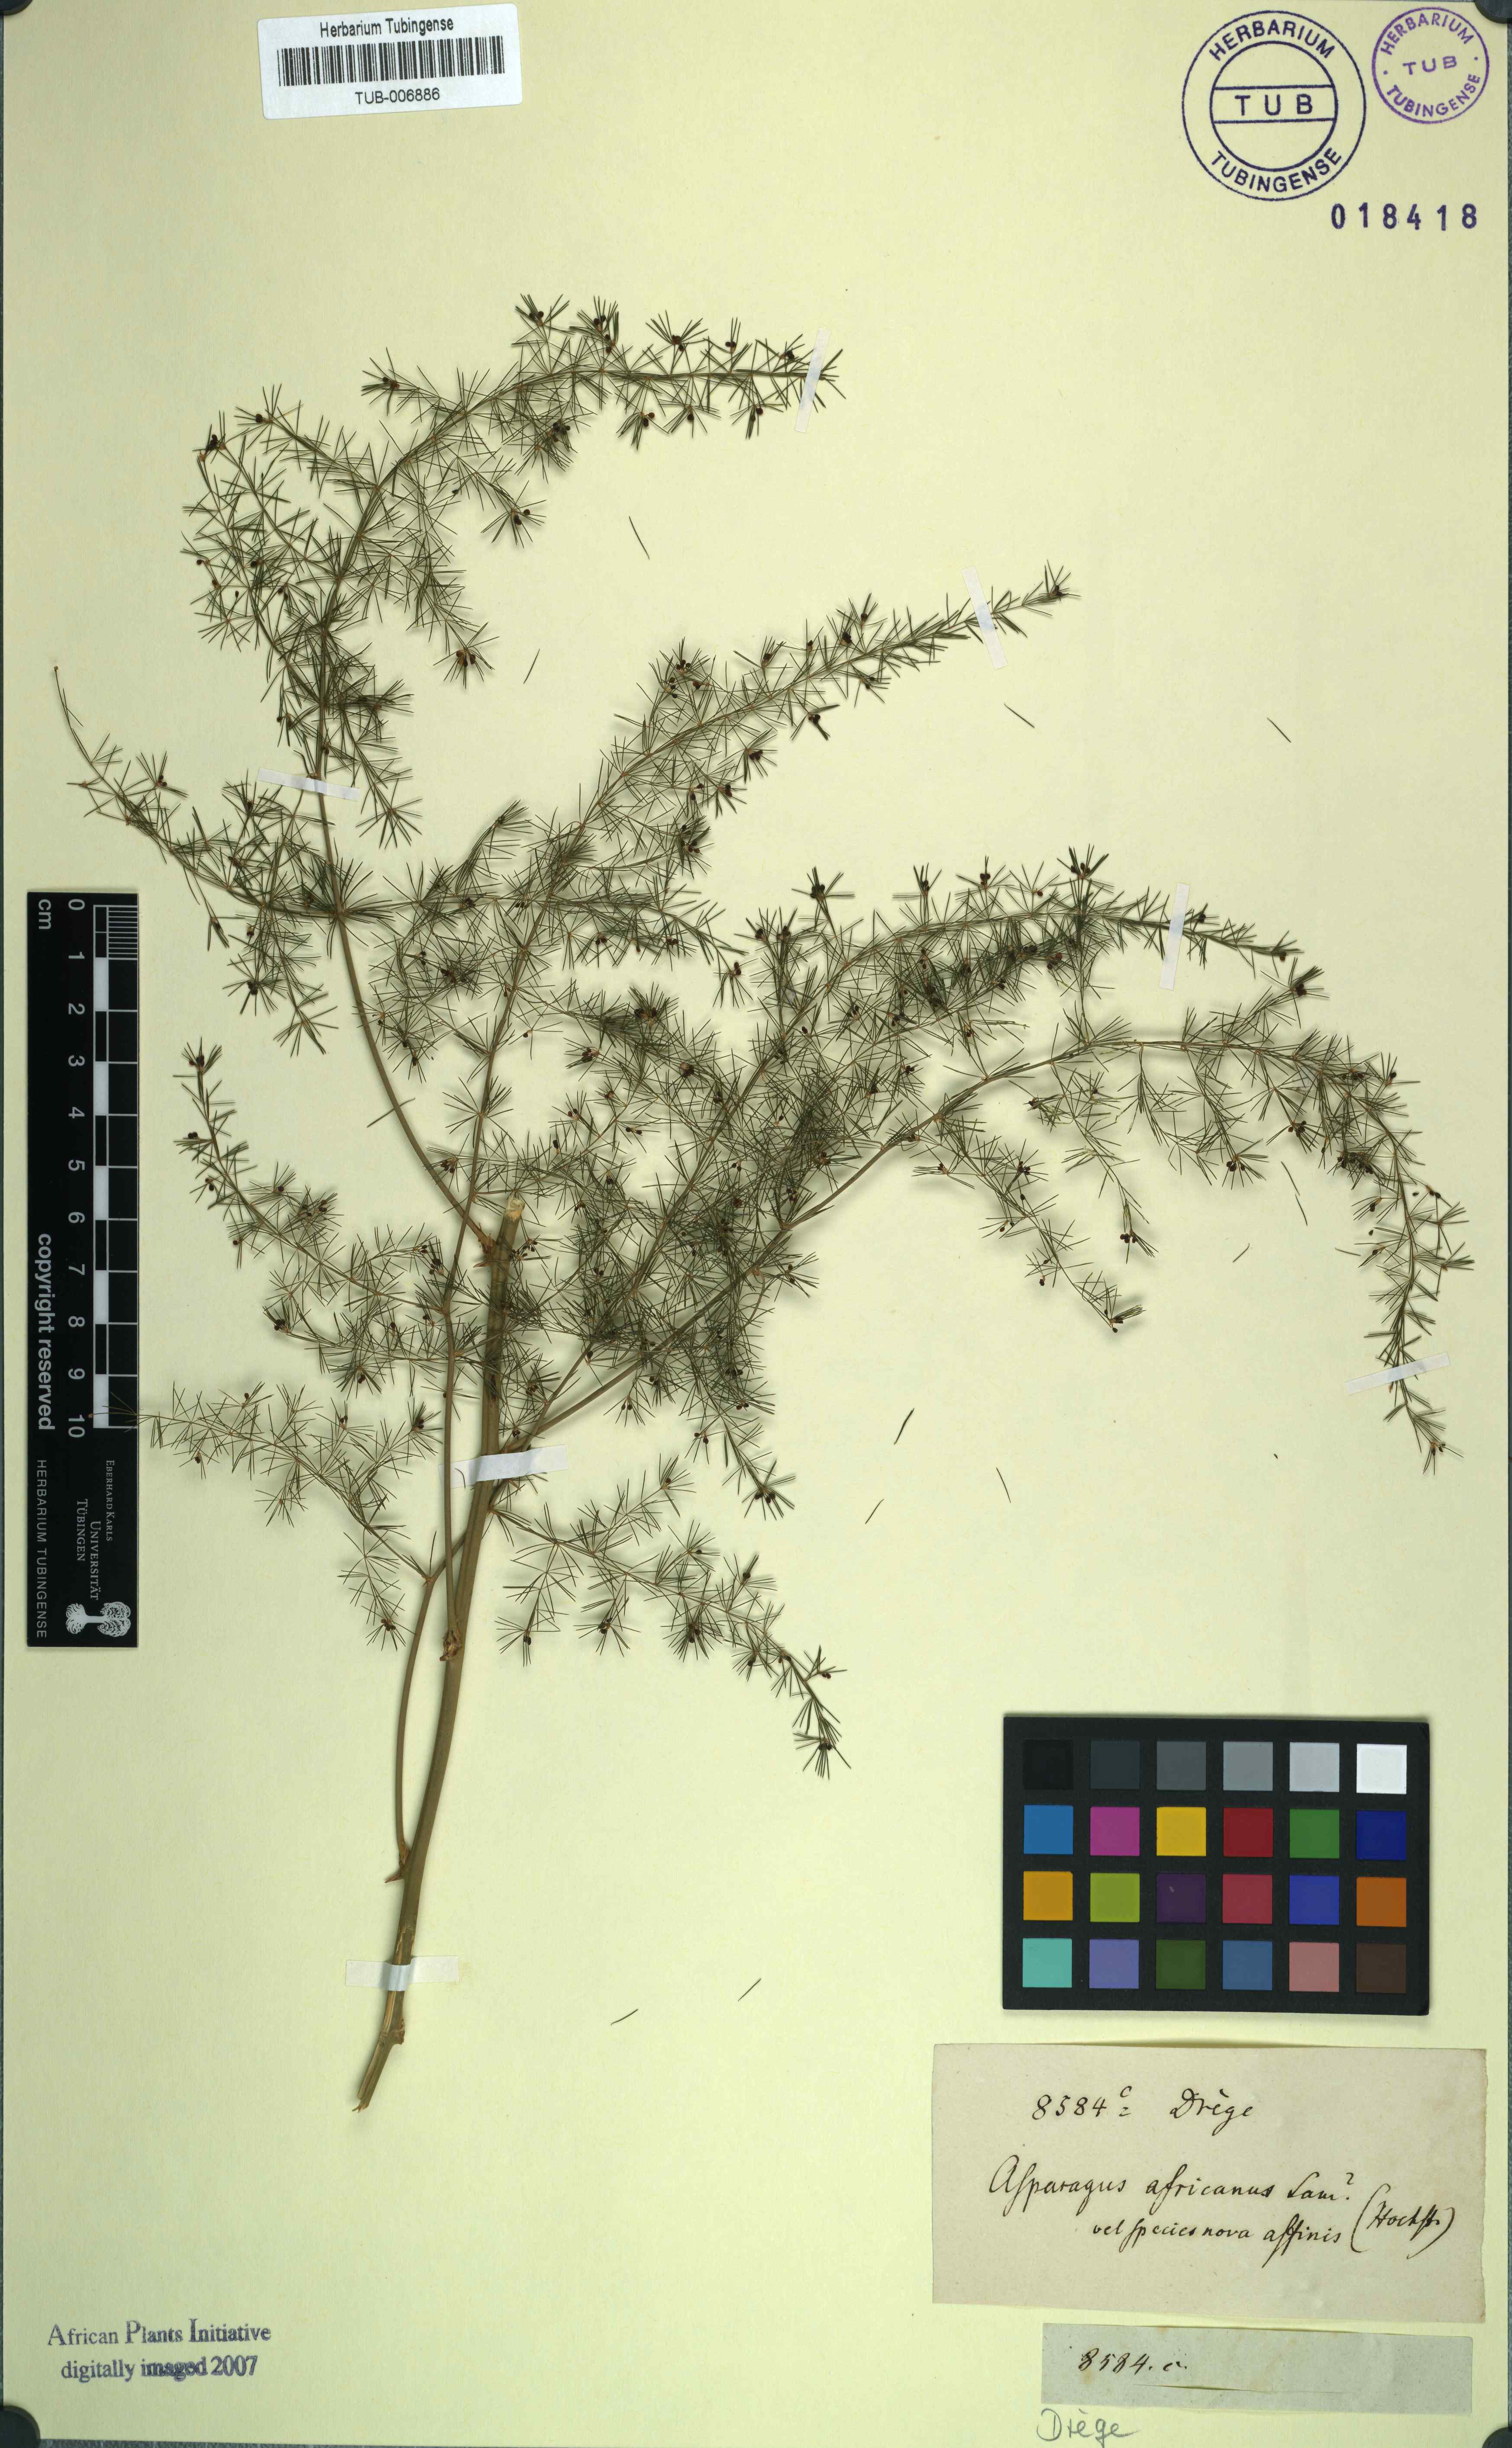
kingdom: Plantae
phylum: Tracheophyta
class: Liliopsida
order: Asparagales
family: Asparagaceae
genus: Asparagus
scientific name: Asparagus africanus
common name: Asparagus-fern
